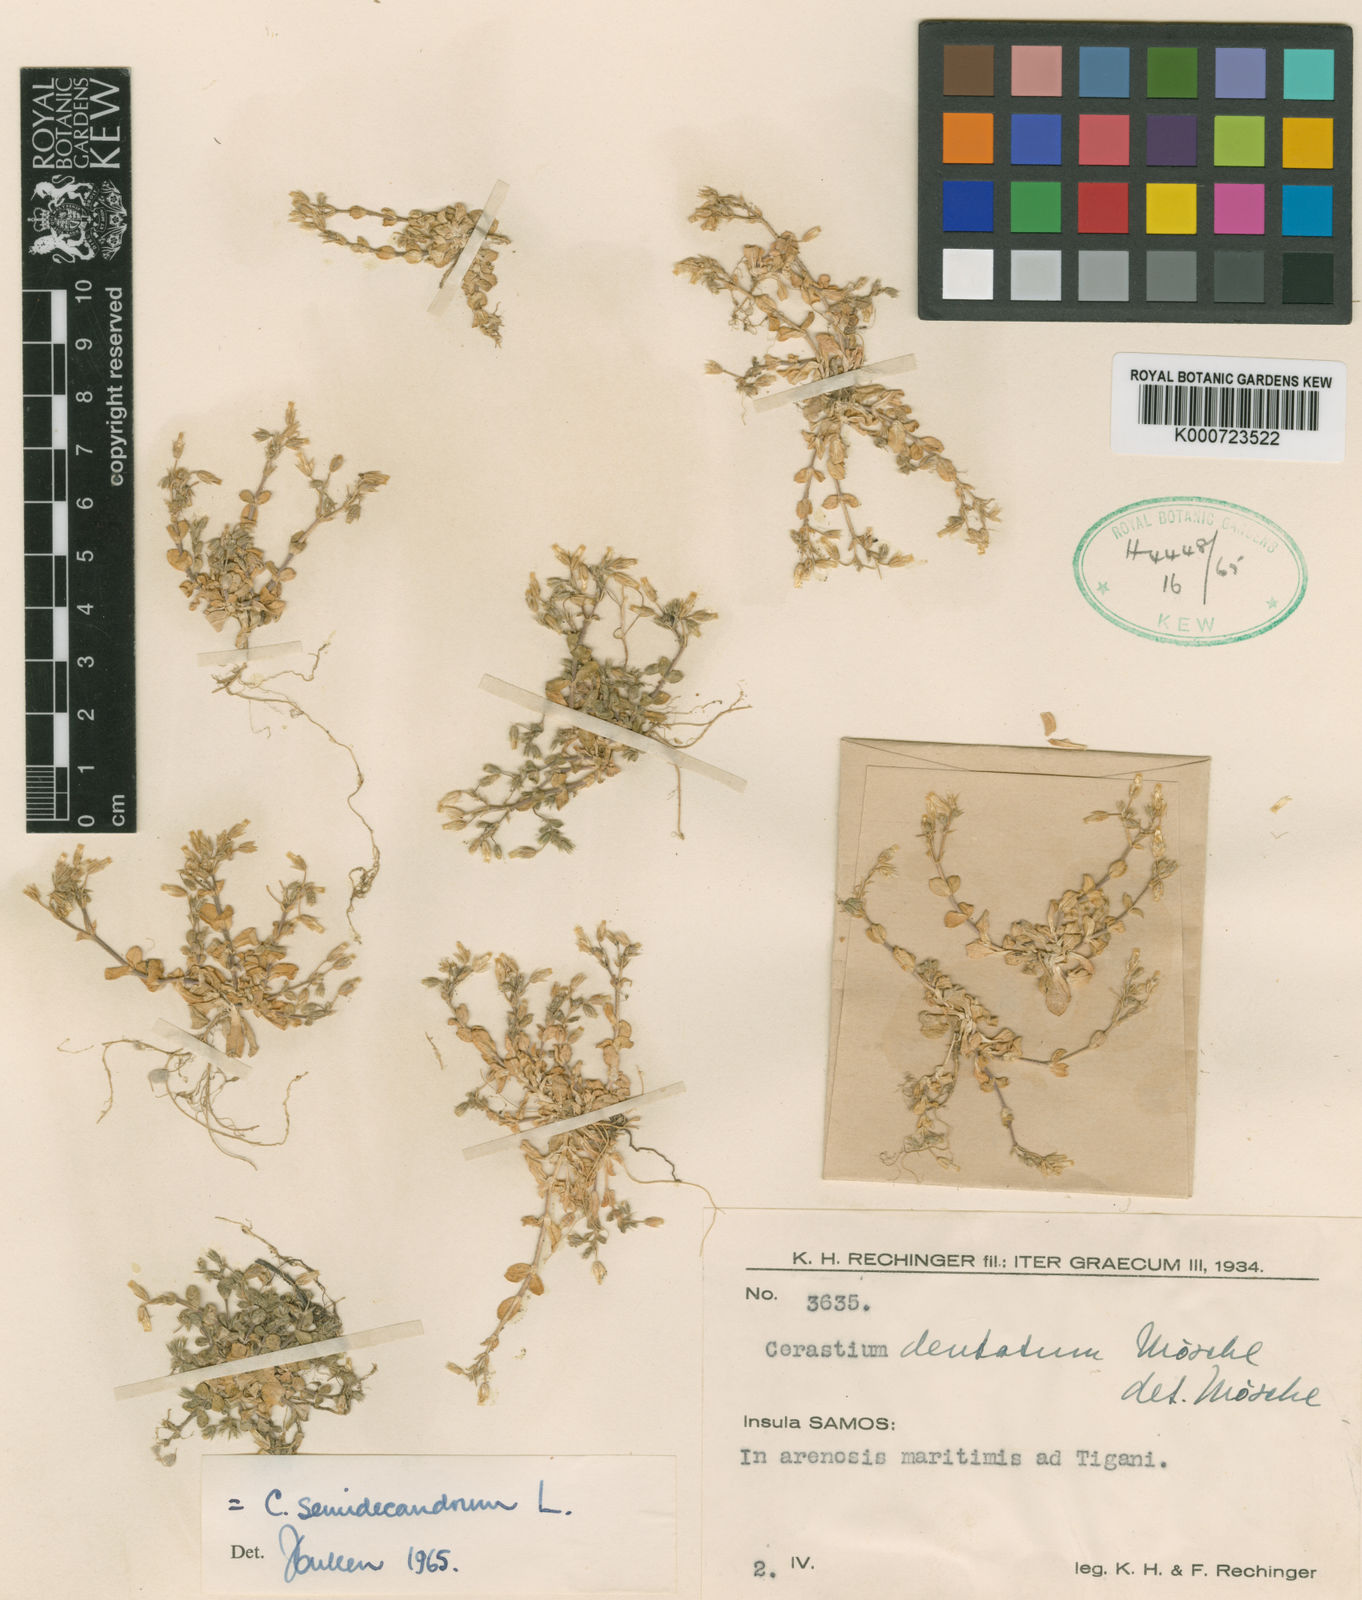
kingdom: Plantae
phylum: Tracheophyta
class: Magnoliopsida
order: Caryophyllales
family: Caryophyllaceae
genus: Cerastium
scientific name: Cerastium semidecandrum
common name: Little mouse-ear
